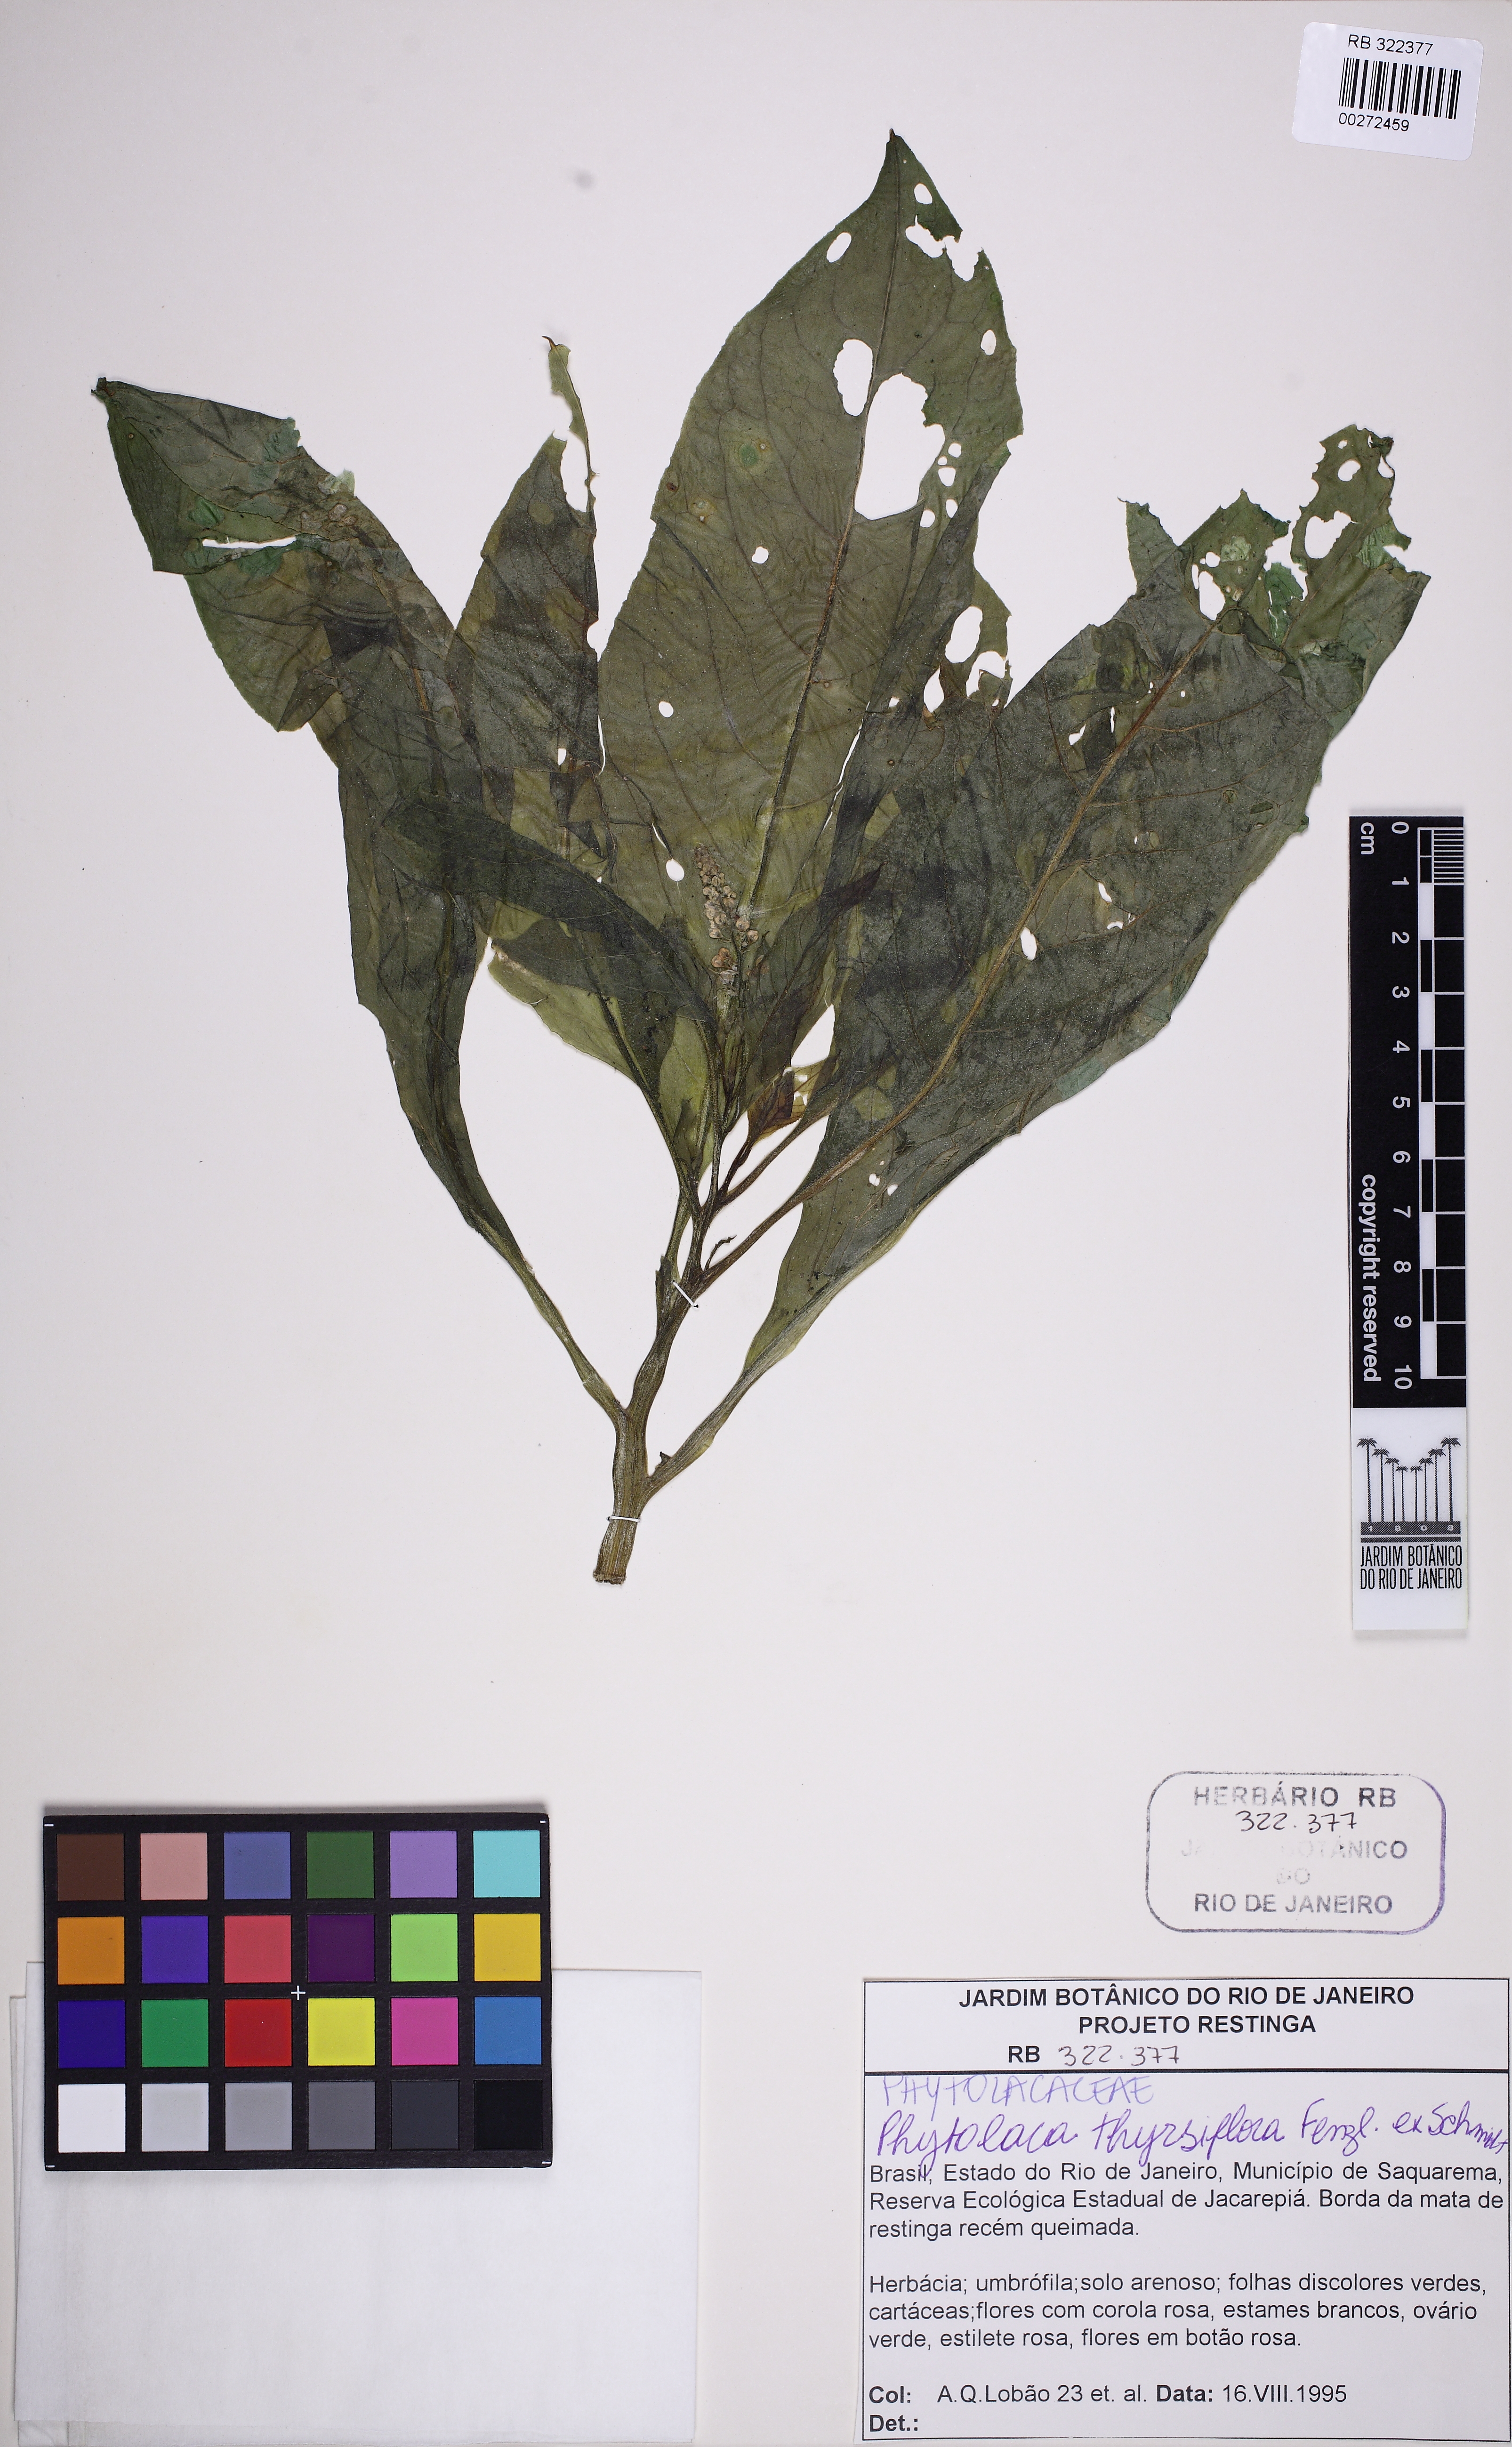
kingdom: Plantae
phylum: Tracheophyta
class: Magnoliopsida
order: Caryophyllales
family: Phytolaccaceae
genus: Phytolacca
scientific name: Phytolacca thyrsiflora
